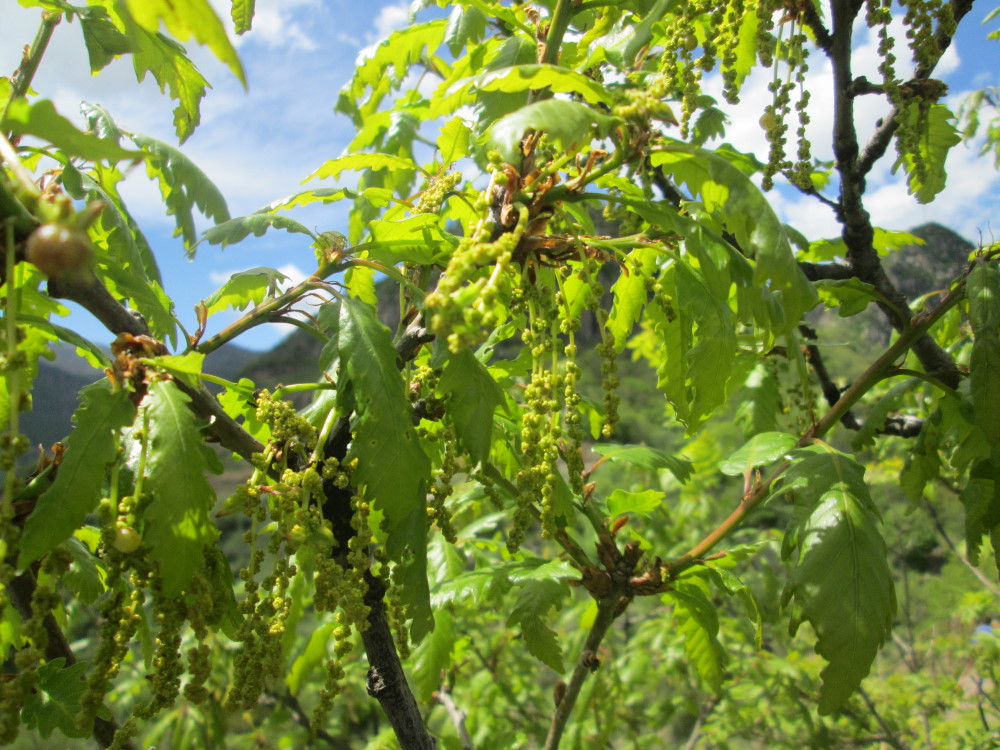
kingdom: Plantae
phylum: Tracheophyta
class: Magnoliopsida
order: Fagales
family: Fagaceae
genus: Quercus
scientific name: Quercus petraea
